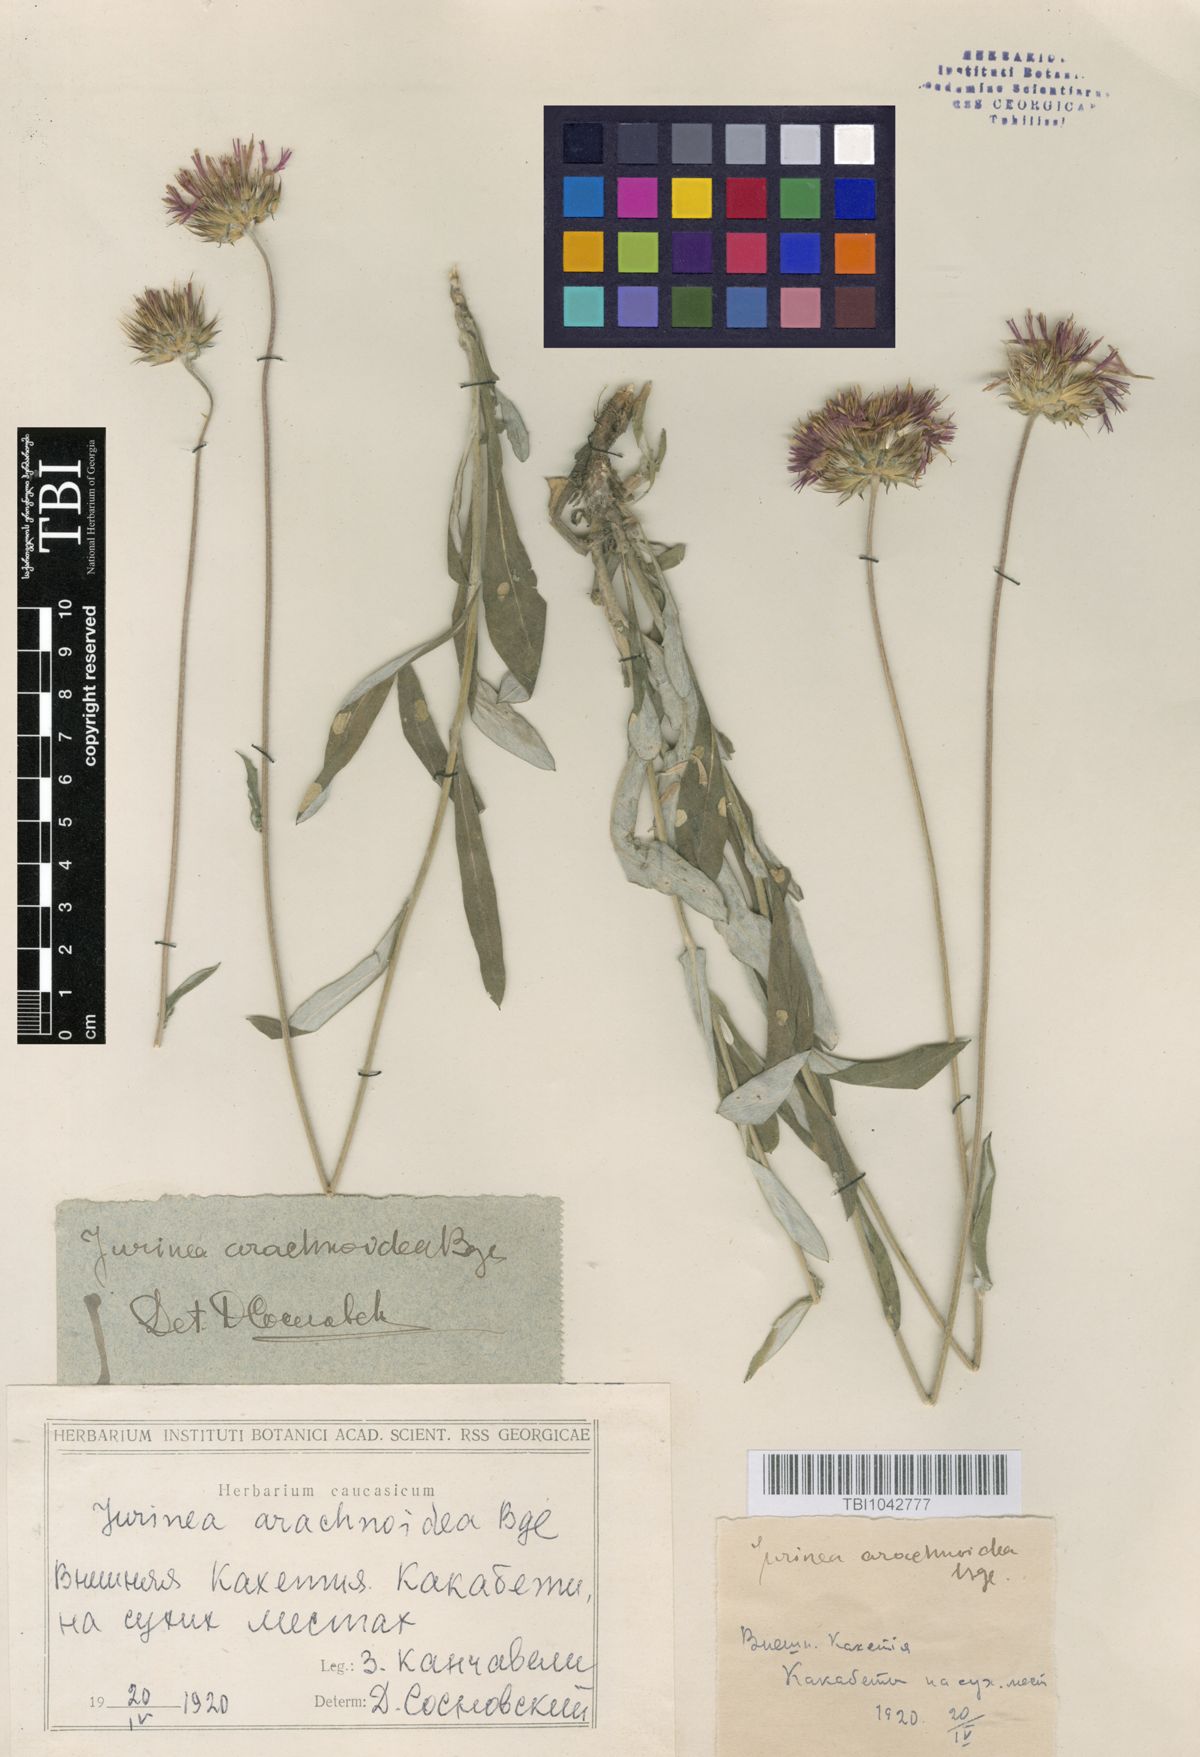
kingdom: Plantae
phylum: Tracheophyta
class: Magnoliopsida
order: Asterales
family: Asteraceae
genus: Jurinea
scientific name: Jurinea blanda
